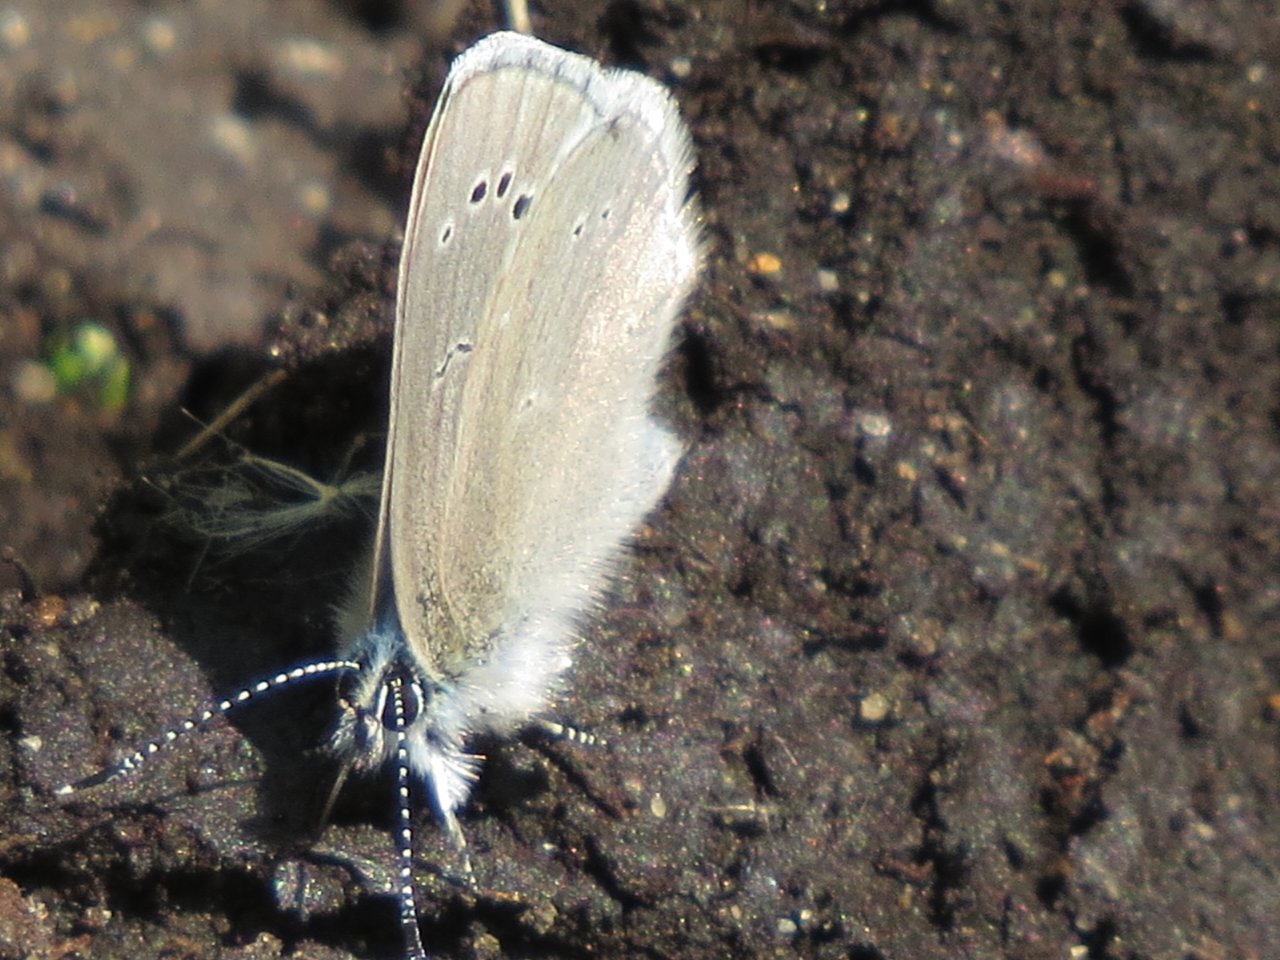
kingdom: Animalia
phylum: Arthropoda
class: Insecta
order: Lepidoptera
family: Lycaenidae
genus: Glaucopsyche
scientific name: Glaucopsyche lygdamus
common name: Silvery Blue
